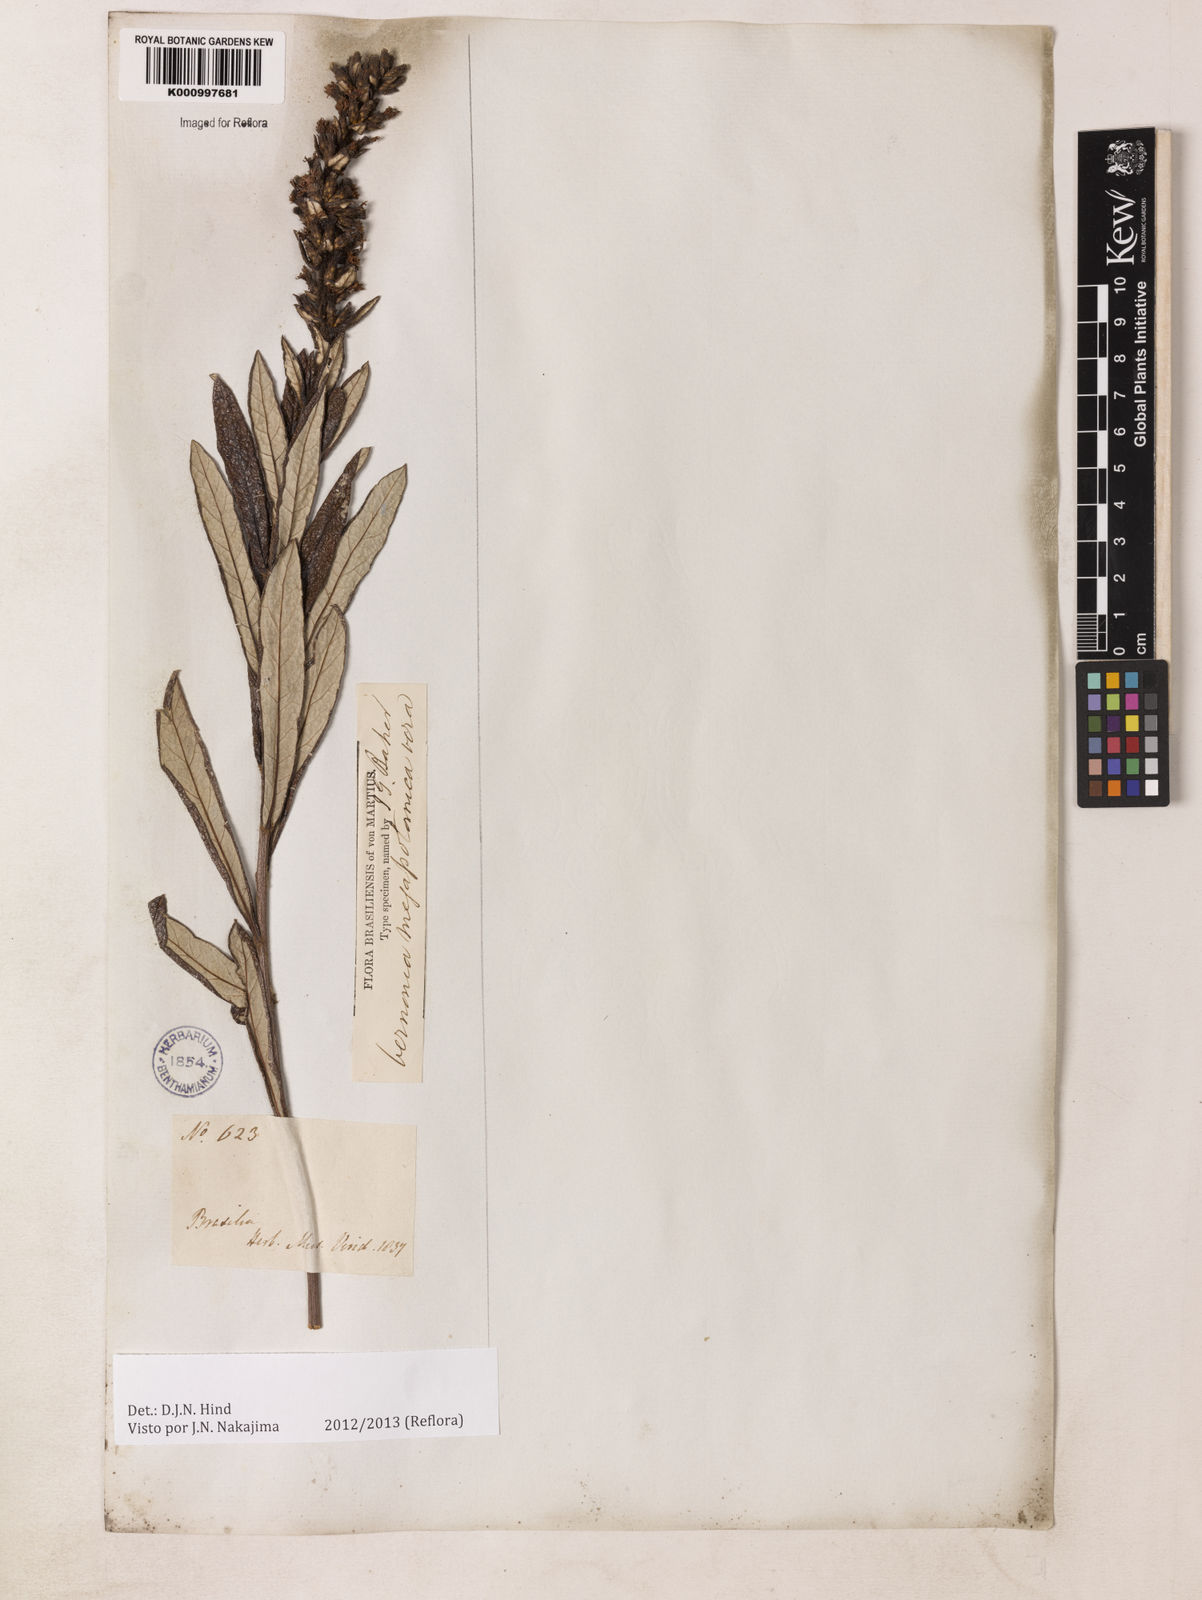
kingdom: Plantae
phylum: Tracheophyta
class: Magnoliopsida
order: Asterales
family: Asteraceae
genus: Stenocephalum
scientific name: Stenocephalum megapotamicum
